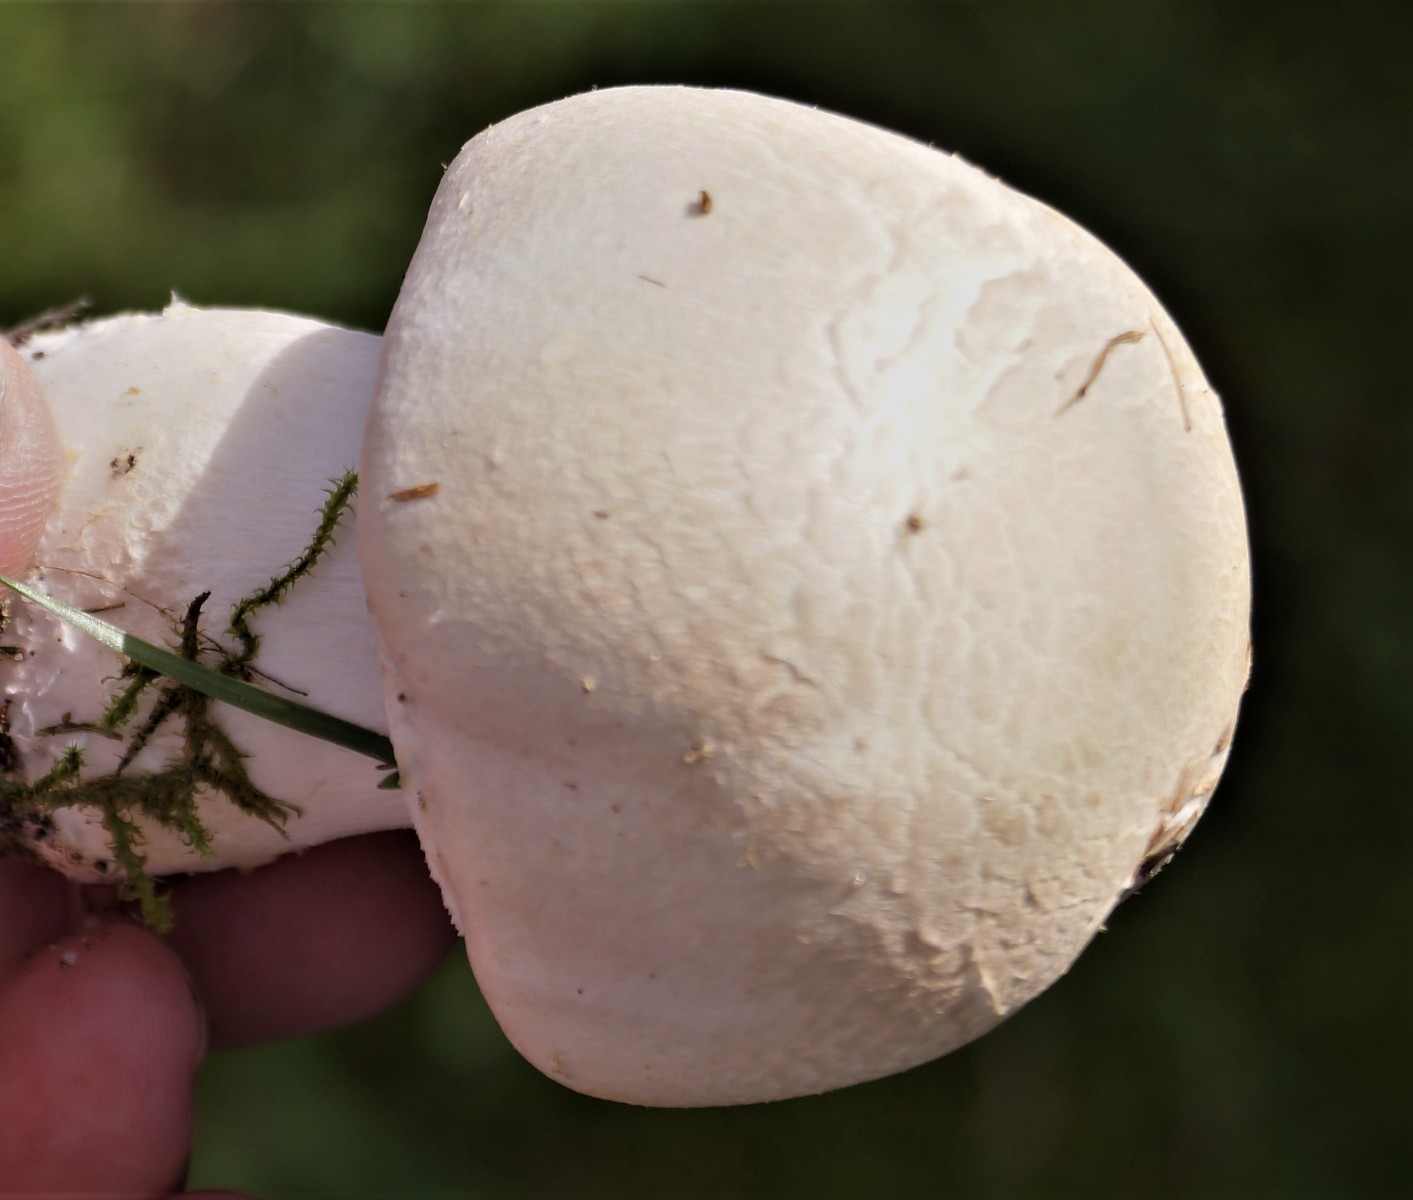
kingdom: Fungi
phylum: Basidiomycota
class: Agaricomycetes
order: Agaricales
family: Agaricaceae
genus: Agaricus
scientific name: Agaricus
